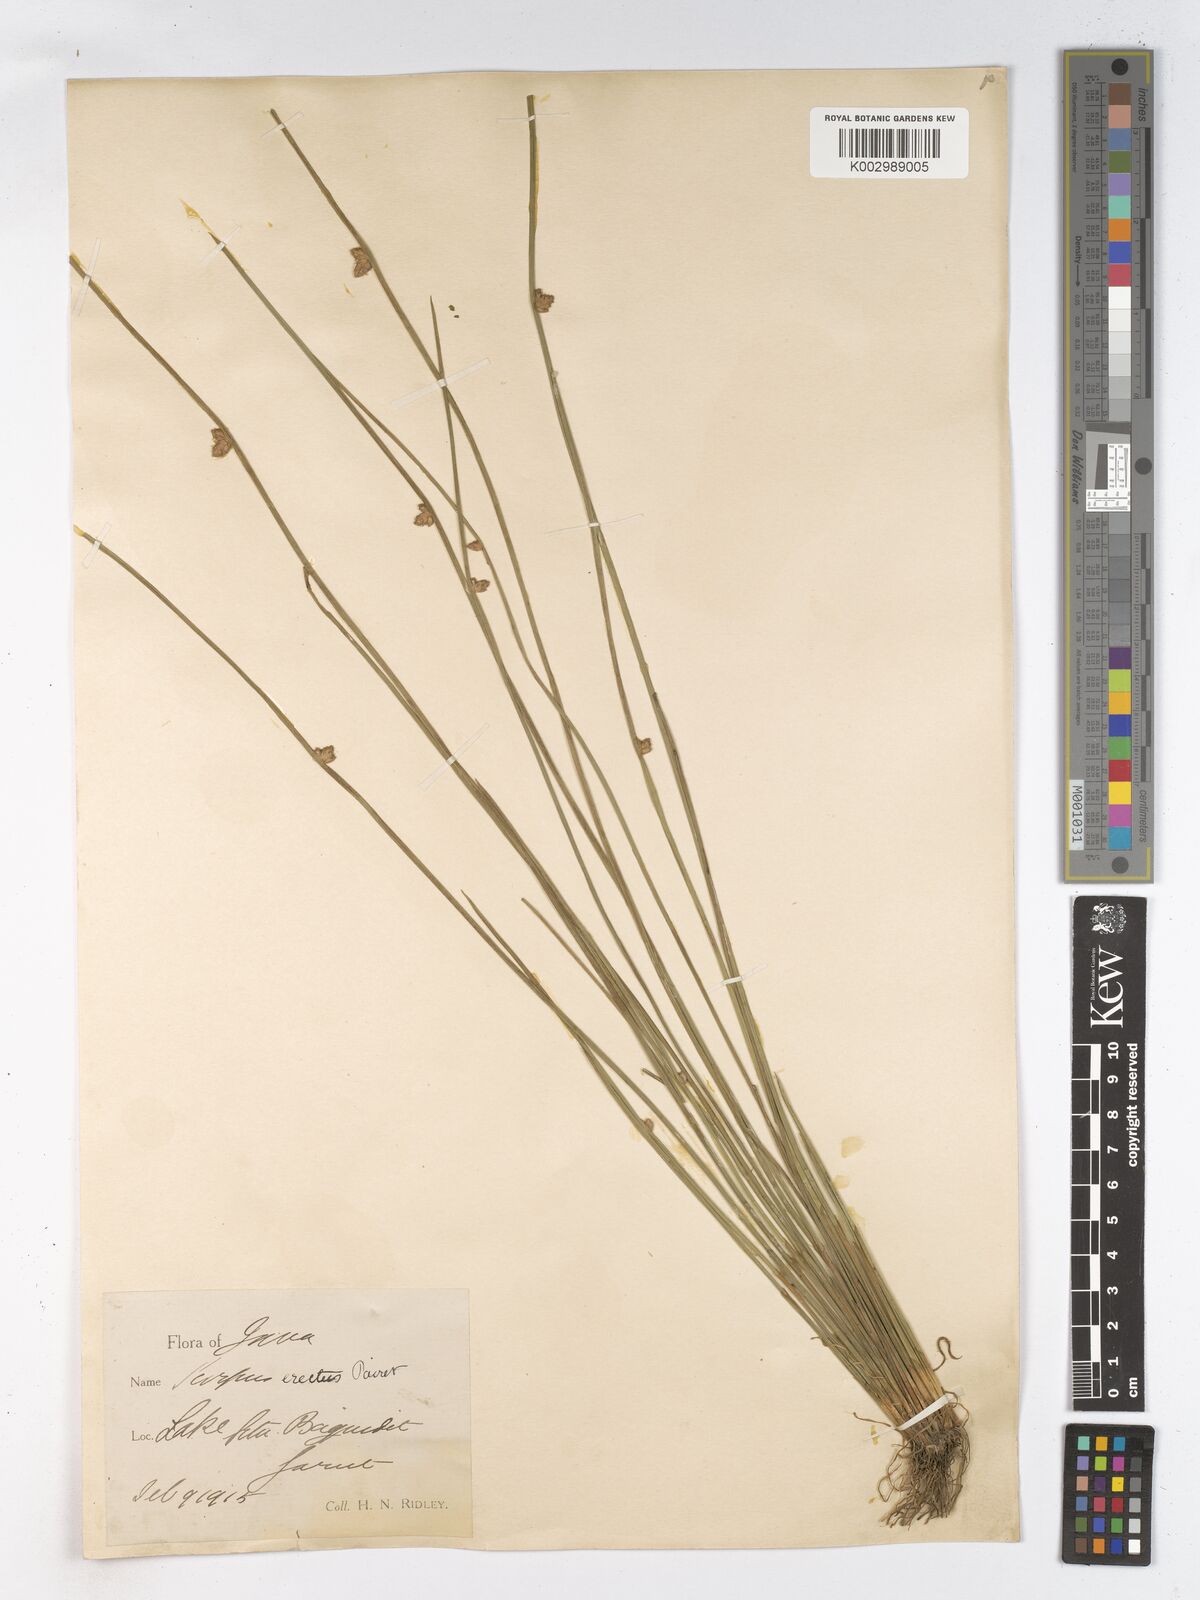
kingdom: Plantae
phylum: Tracheophyta
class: Liliopsida
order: Poales
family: Cyperaceae
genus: Schoenoplectiella
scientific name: Schoenoplectiella juncoides
